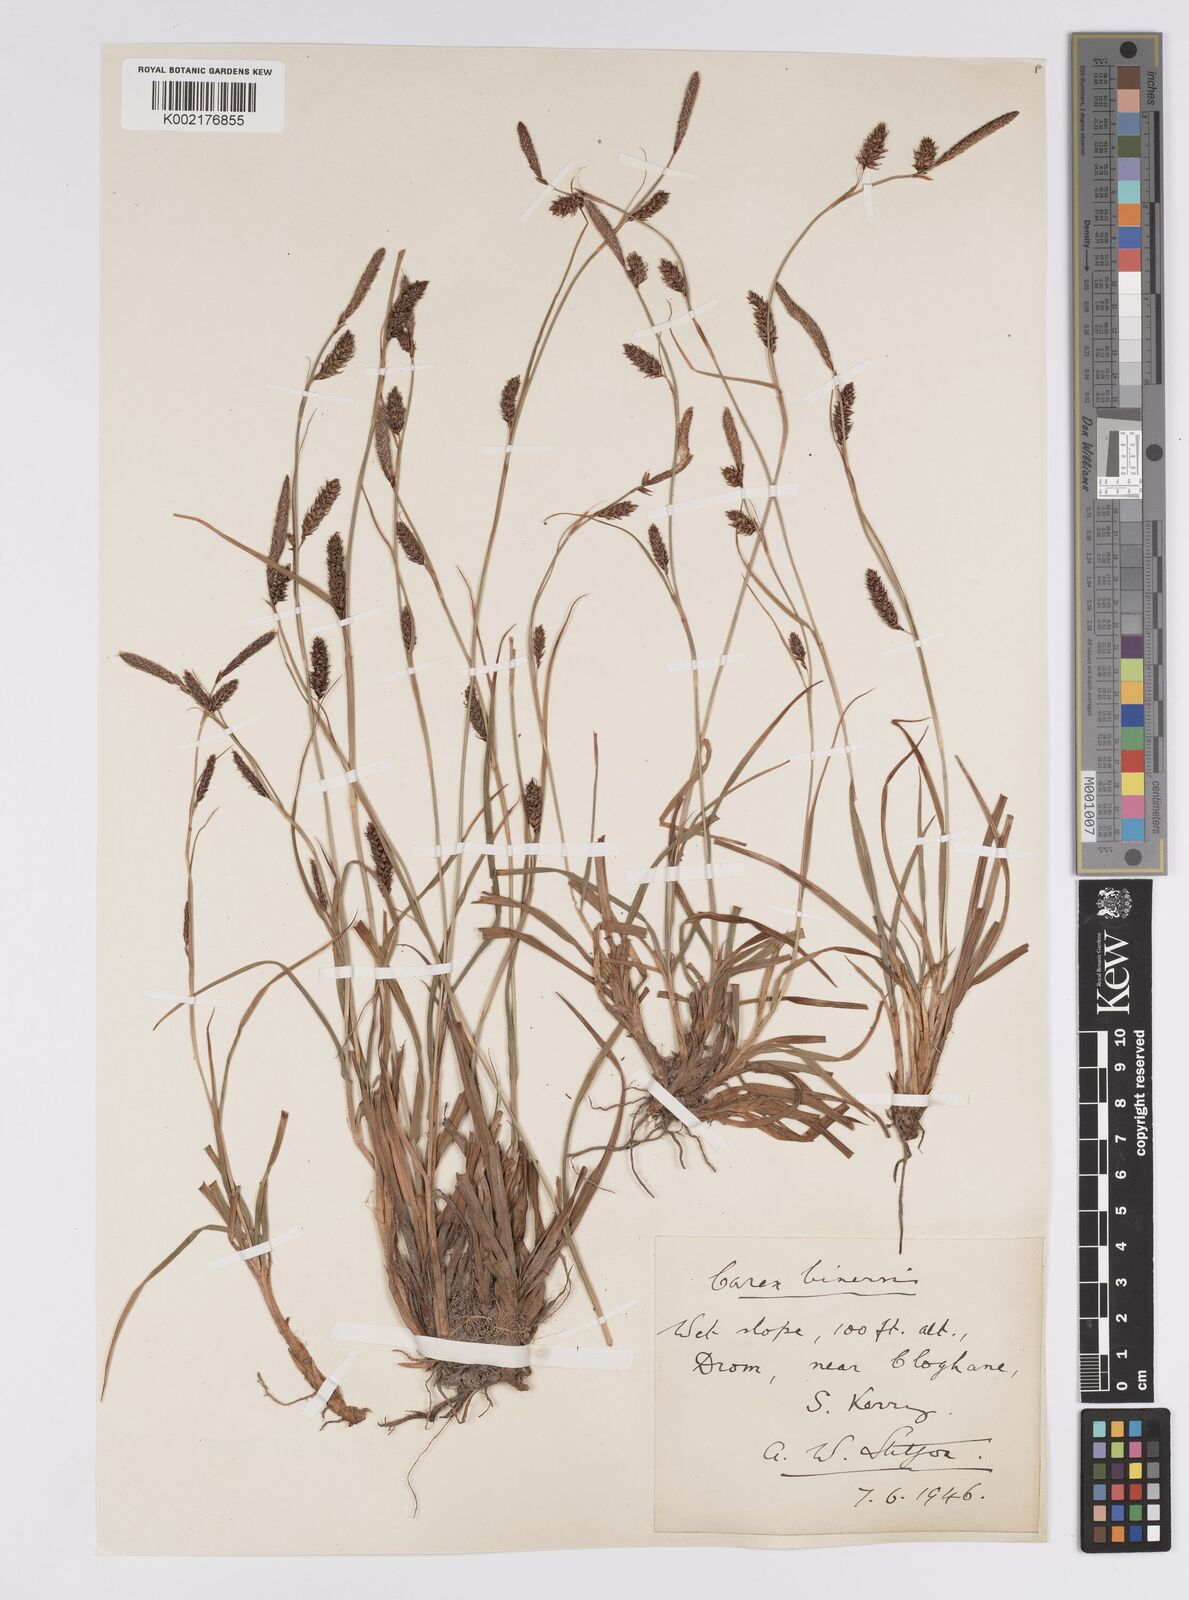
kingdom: Plantae
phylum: Tracheophyta
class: Liliopsida
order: Poales
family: Cyperaceae
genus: Carex
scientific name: Carex binervis
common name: Green-ribbed sedge
